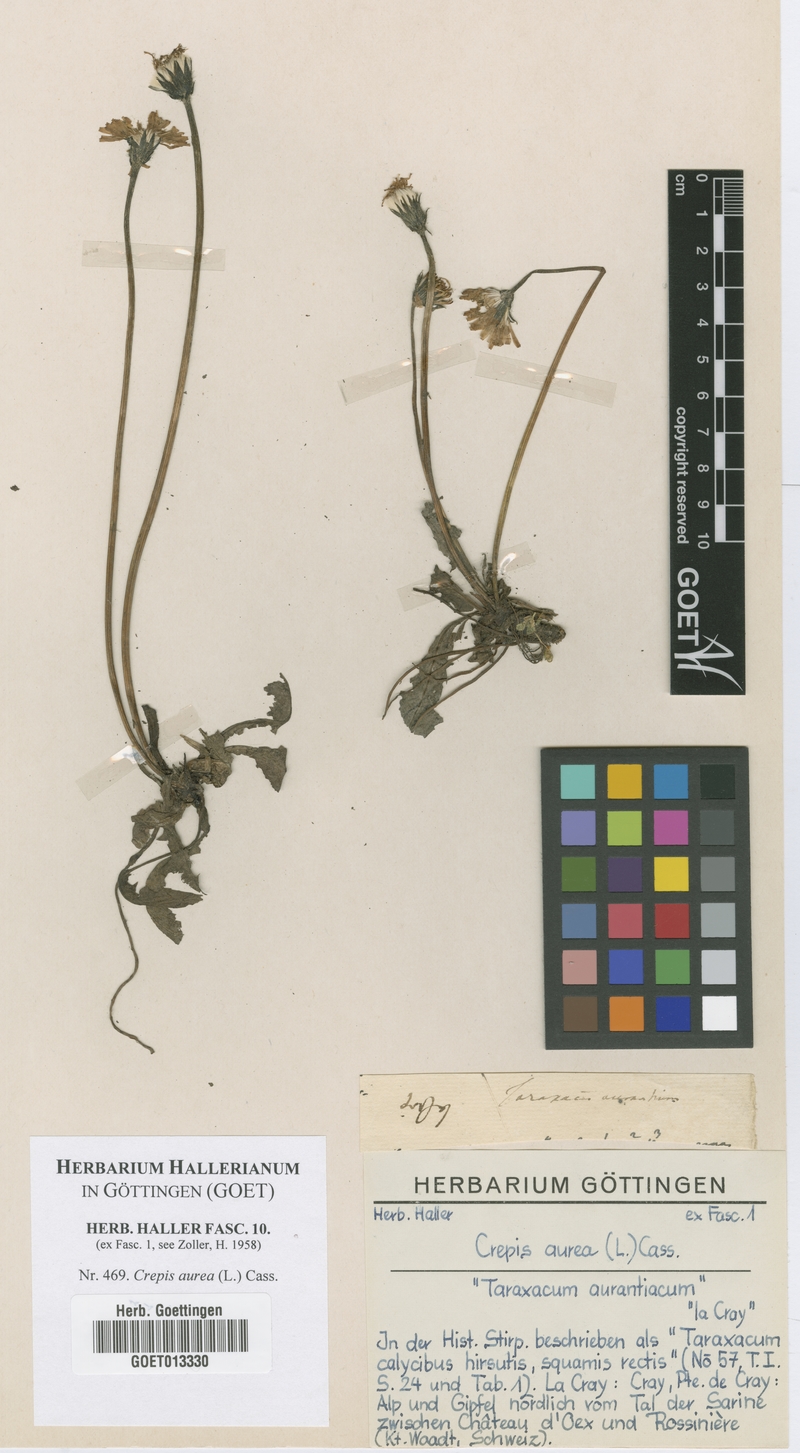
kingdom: Plantae
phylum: Tracheophyta
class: Magnoliopsida
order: Asterales
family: Asteraceae
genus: Crepis
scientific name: Crepis aurea
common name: Golden hawk's-beard
